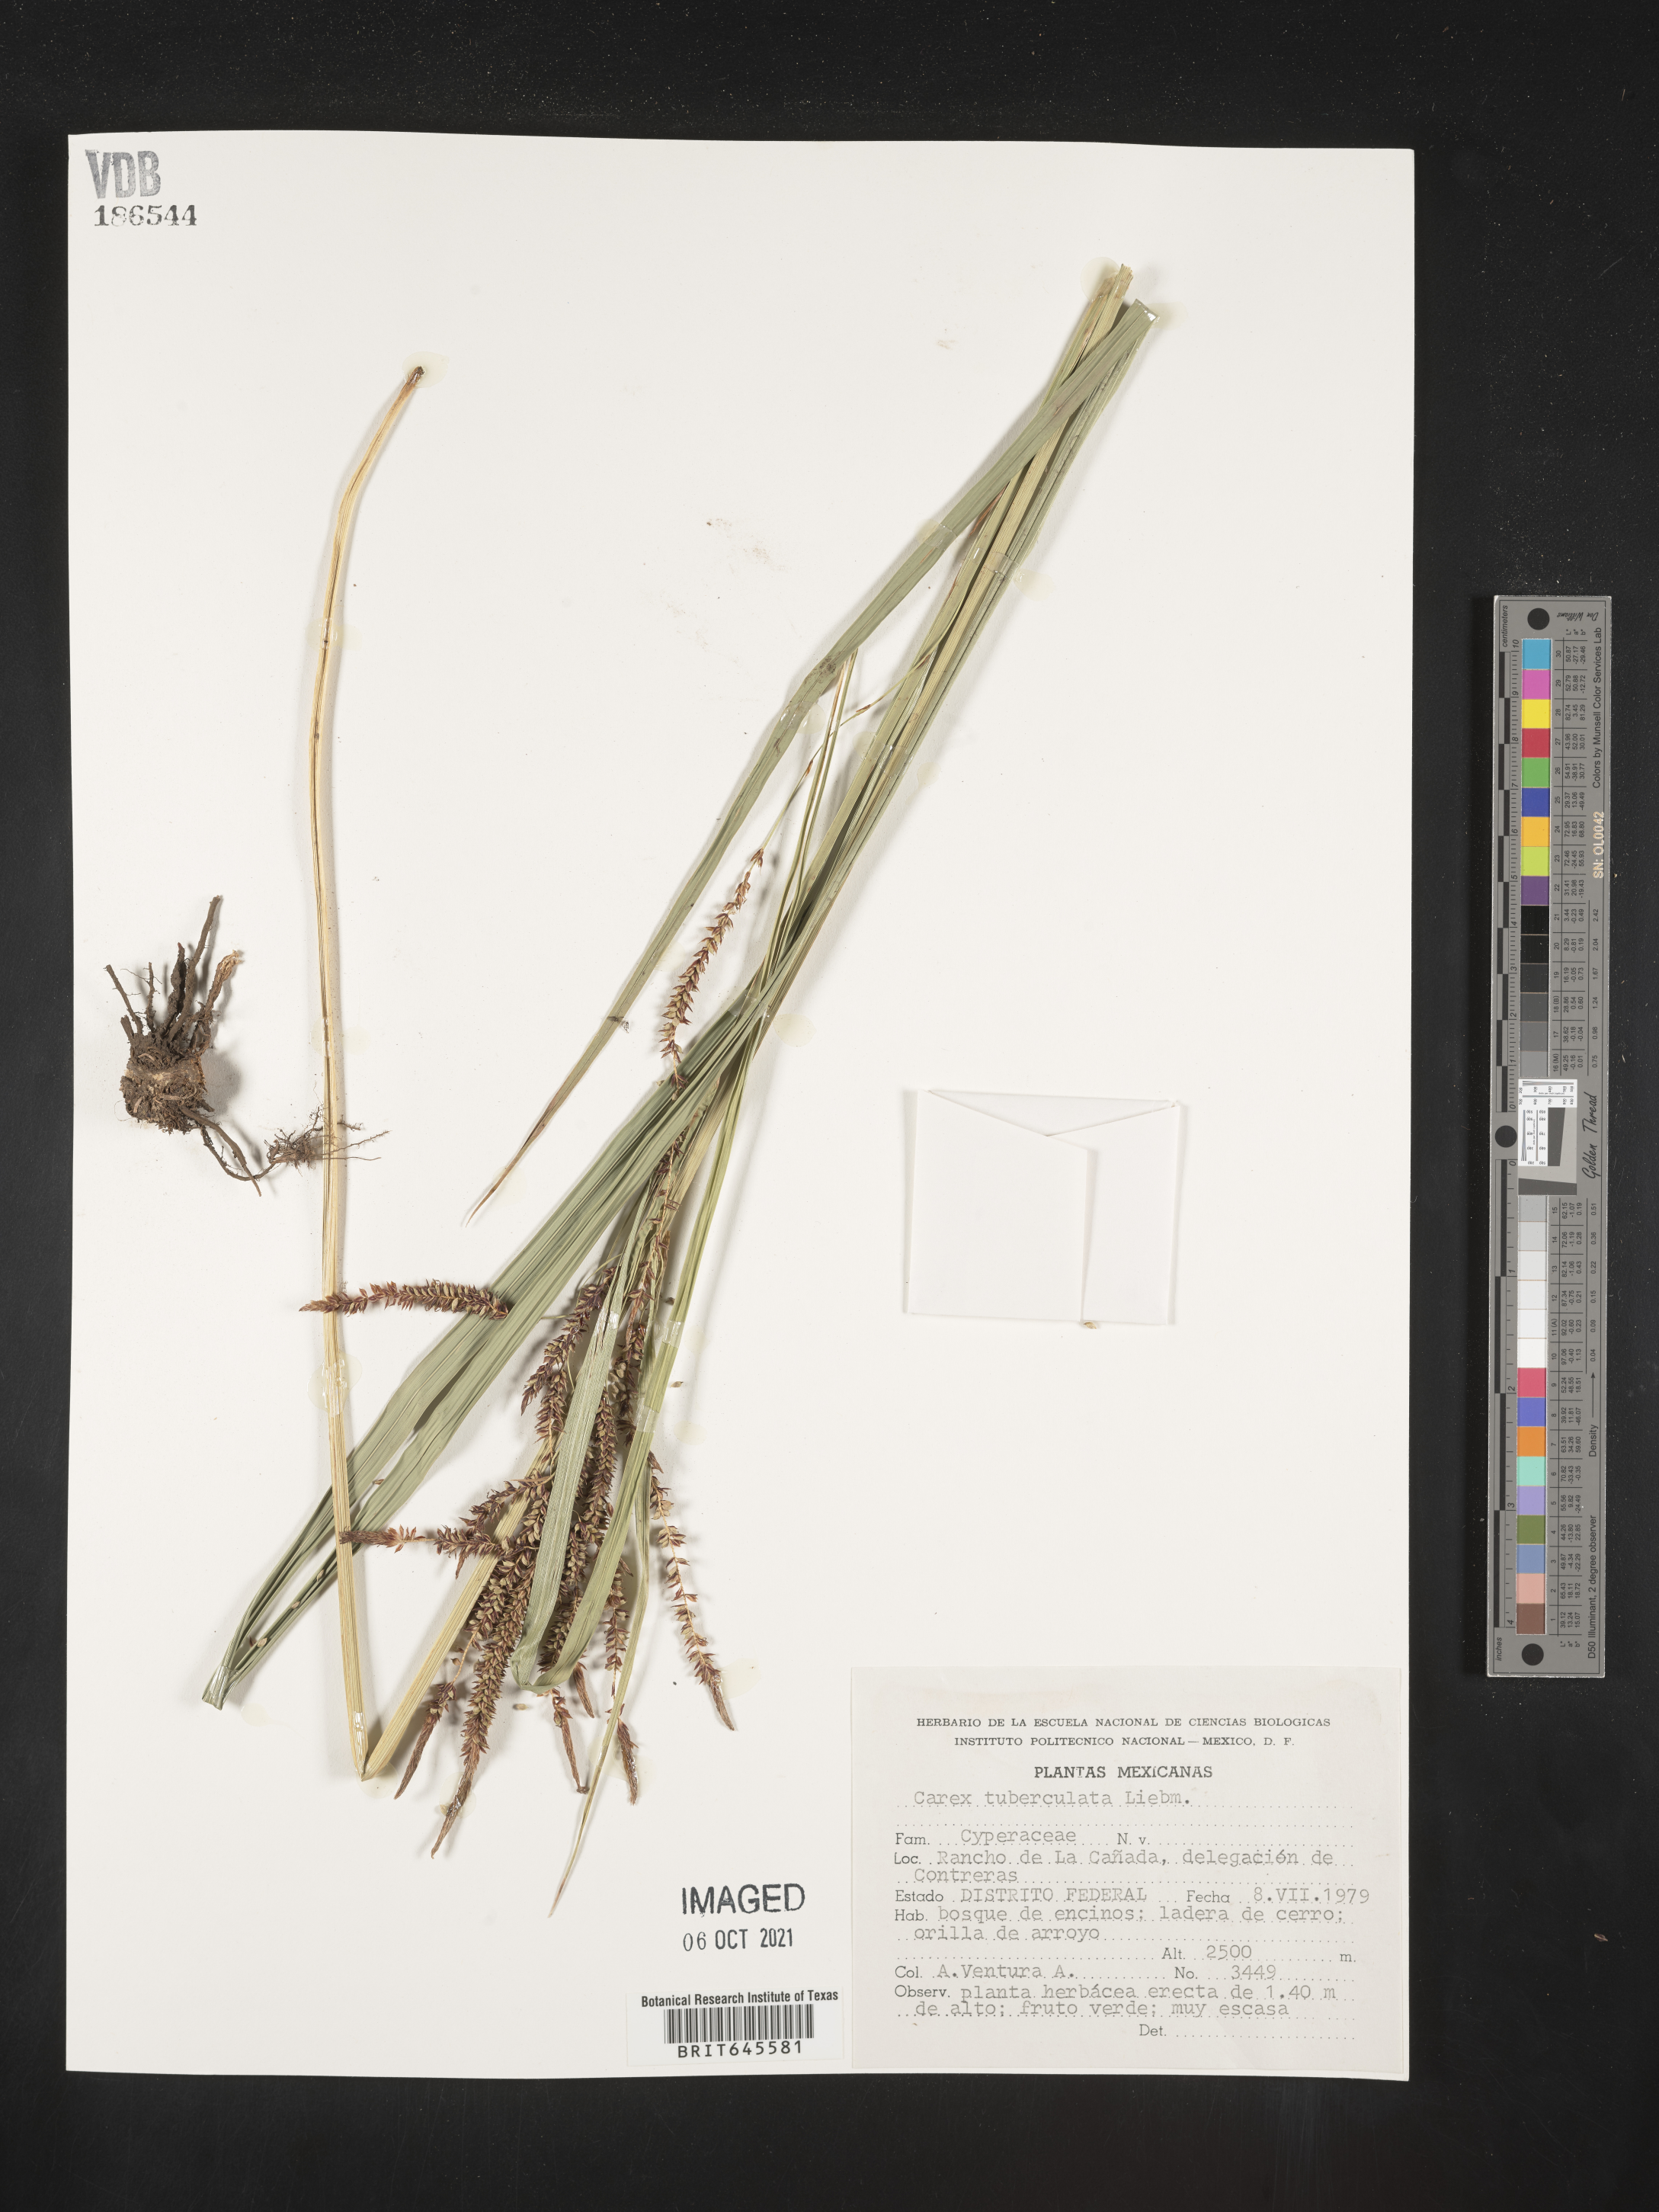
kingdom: Plantae
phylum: Tracheophyta
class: Liliopsida
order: Poales
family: Cyperaceae
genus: Carex
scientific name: Carex
